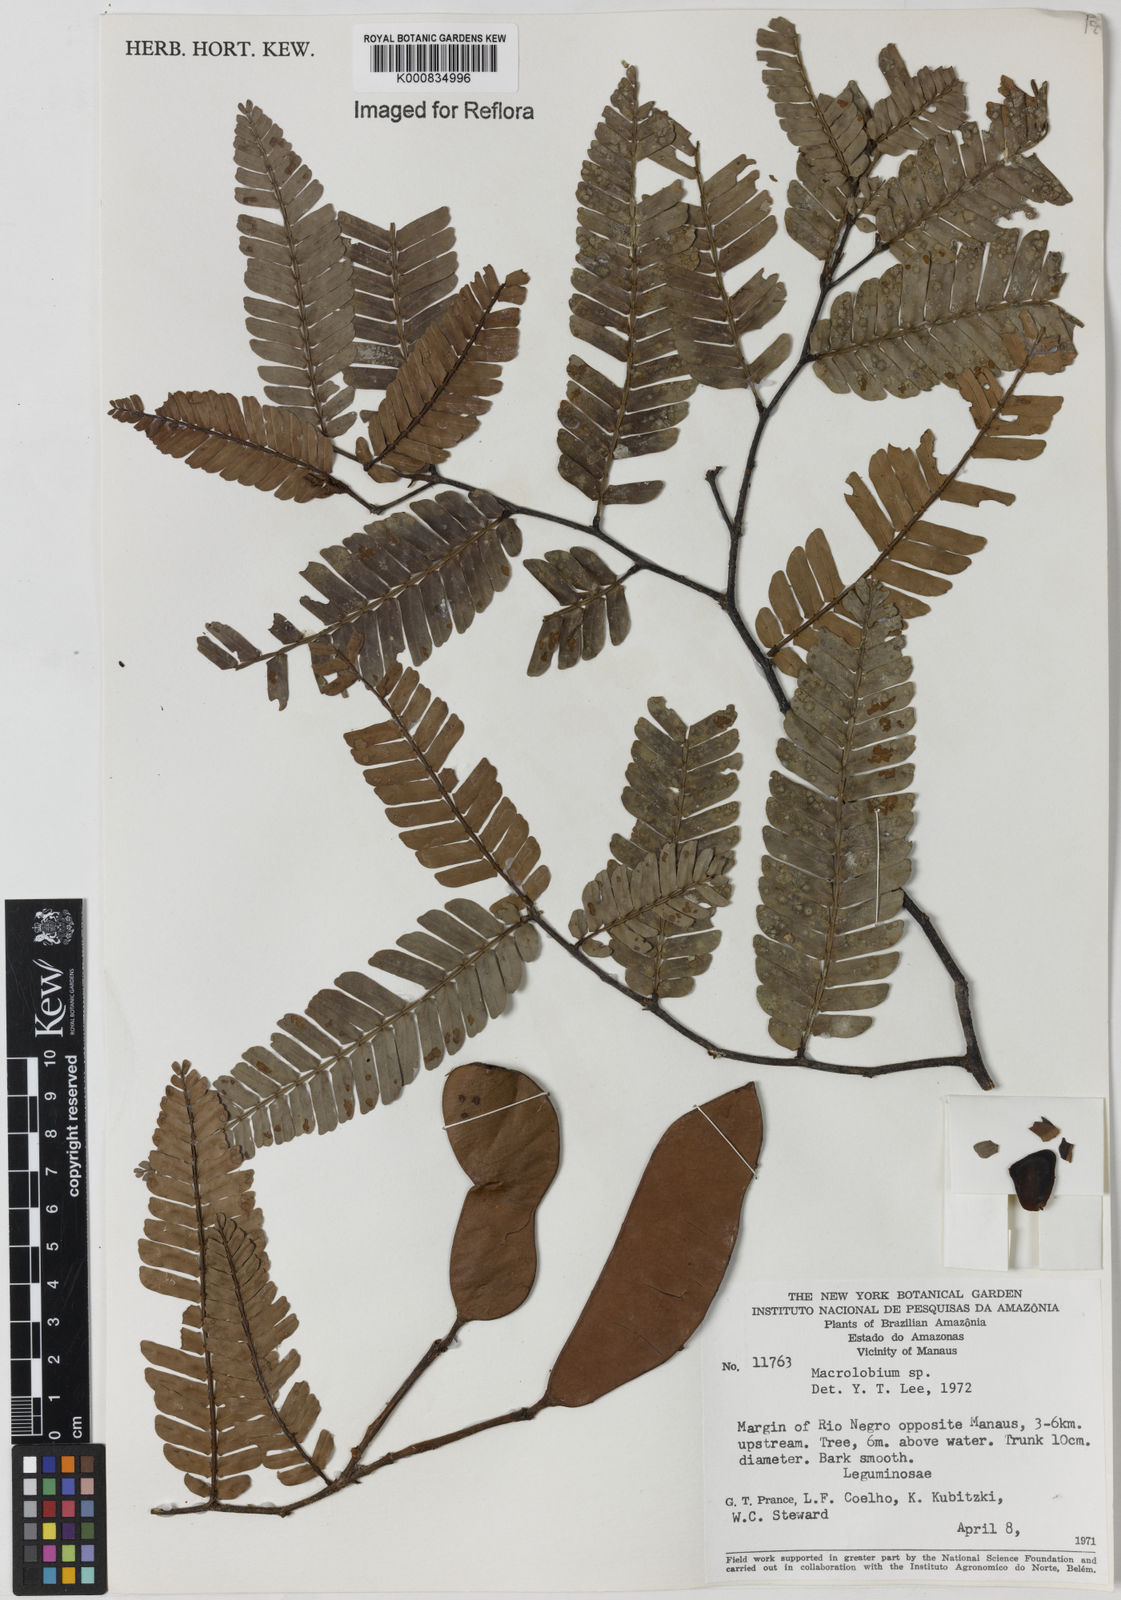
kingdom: Plantae
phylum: Tracheophyta
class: Magnoliopsida
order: Fabales
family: Fabaceae
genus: Macrolobium
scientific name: Macrolobium
